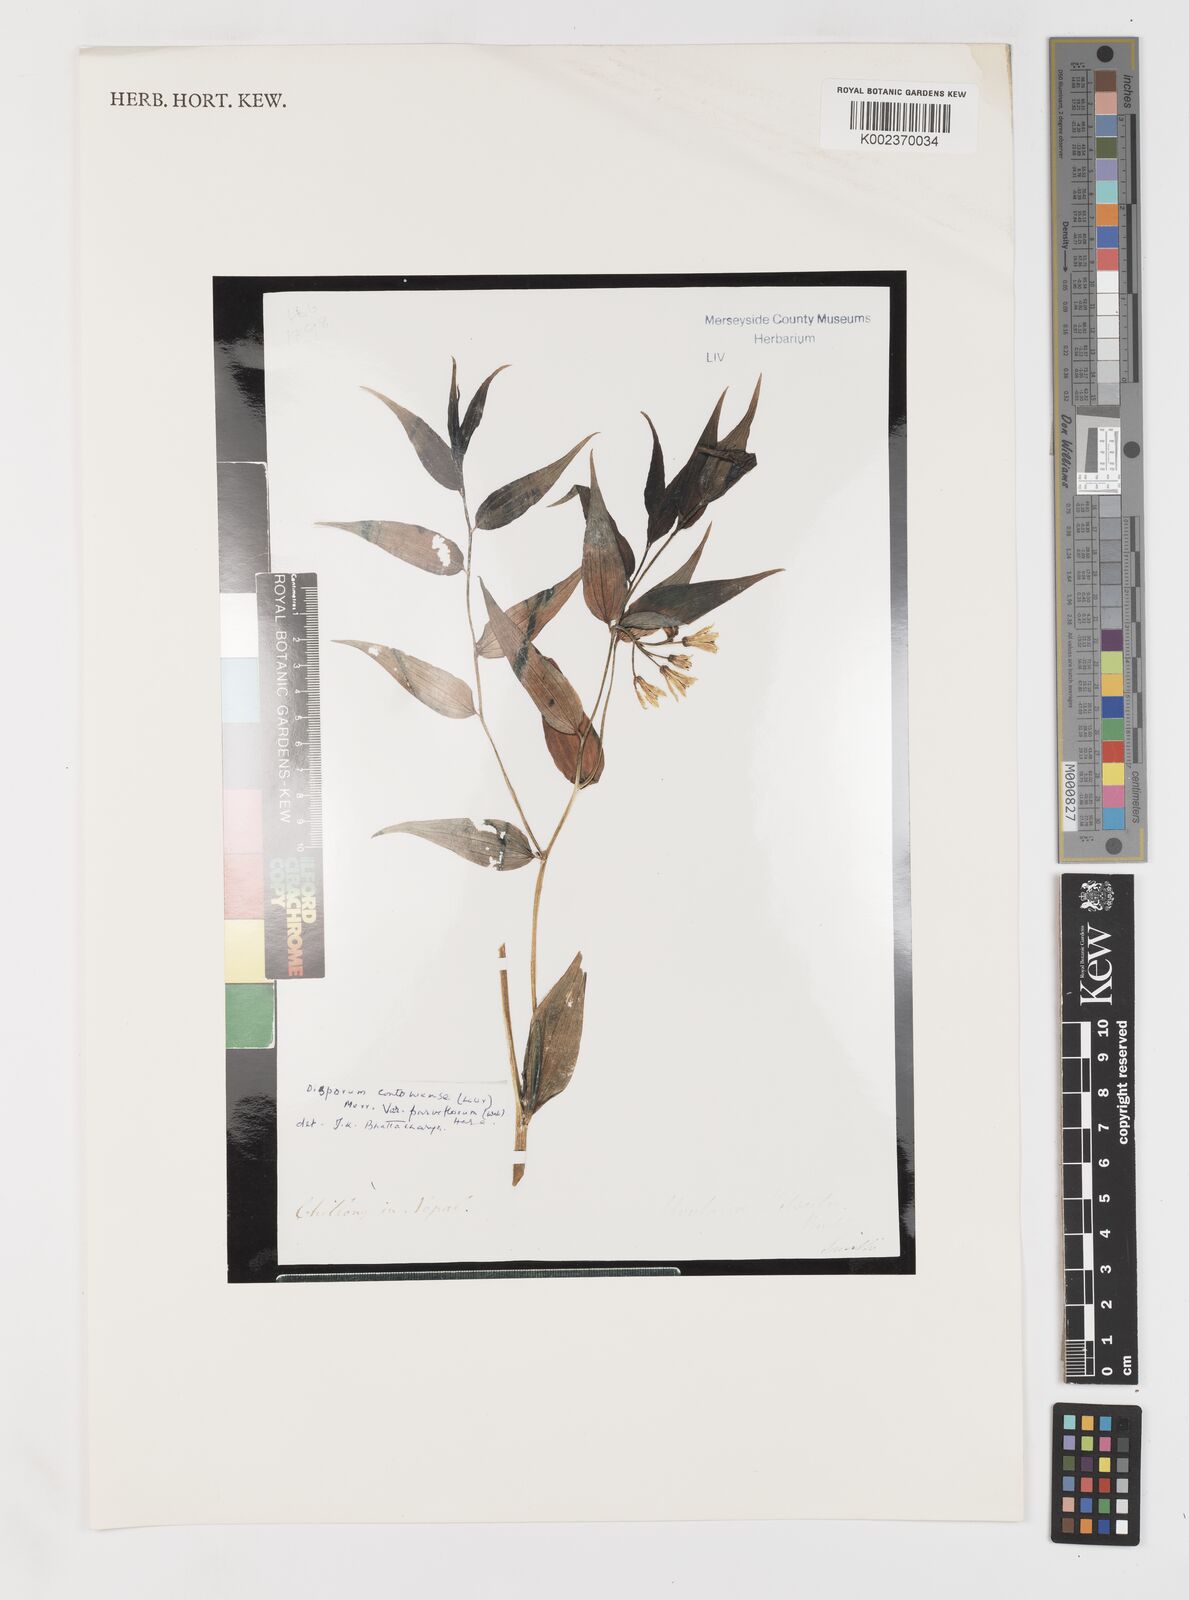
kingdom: Plantae
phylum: Tracheophyta
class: Liliopsida
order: Liliales
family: Colchicaceae
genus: Disporum
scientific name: Disporum
